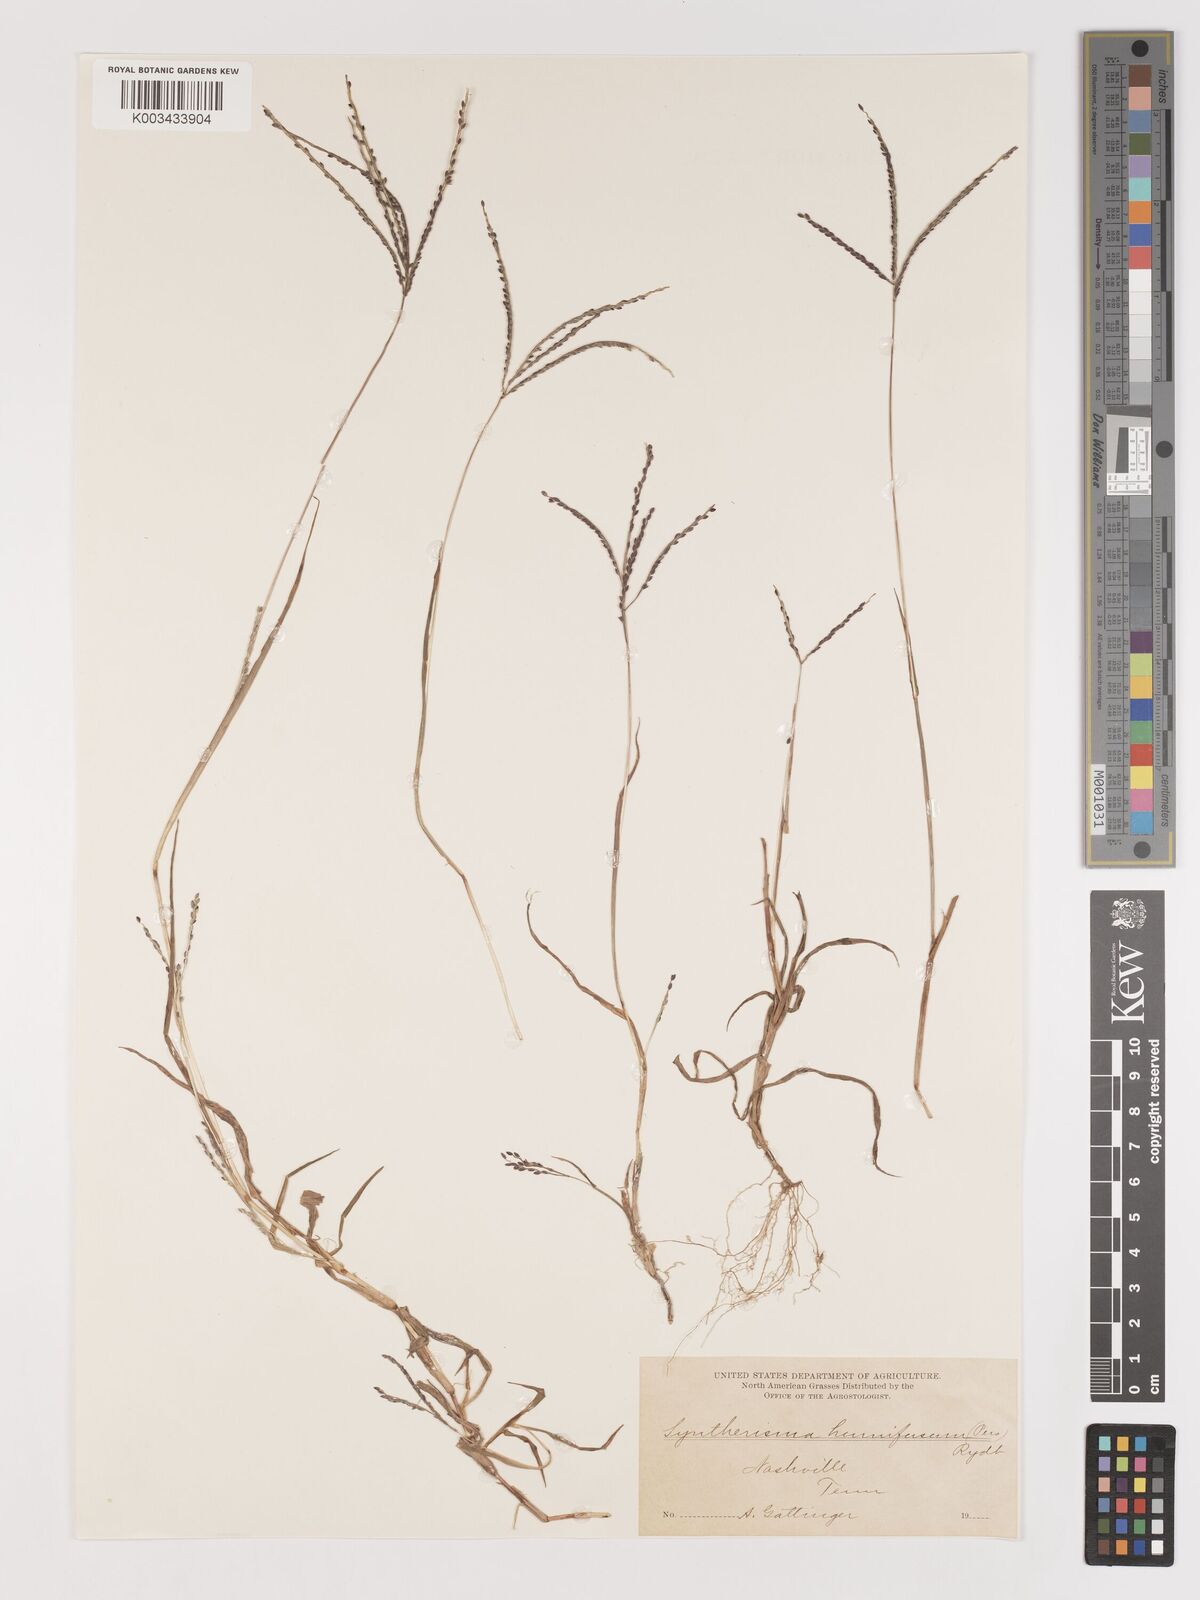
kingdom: Plantae
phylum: Tracheophyta
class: Liliopsida
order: Poales
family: Poaceae
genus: Digitaria
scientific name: Digitaria ischaemum
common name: Smooth crabgrass
